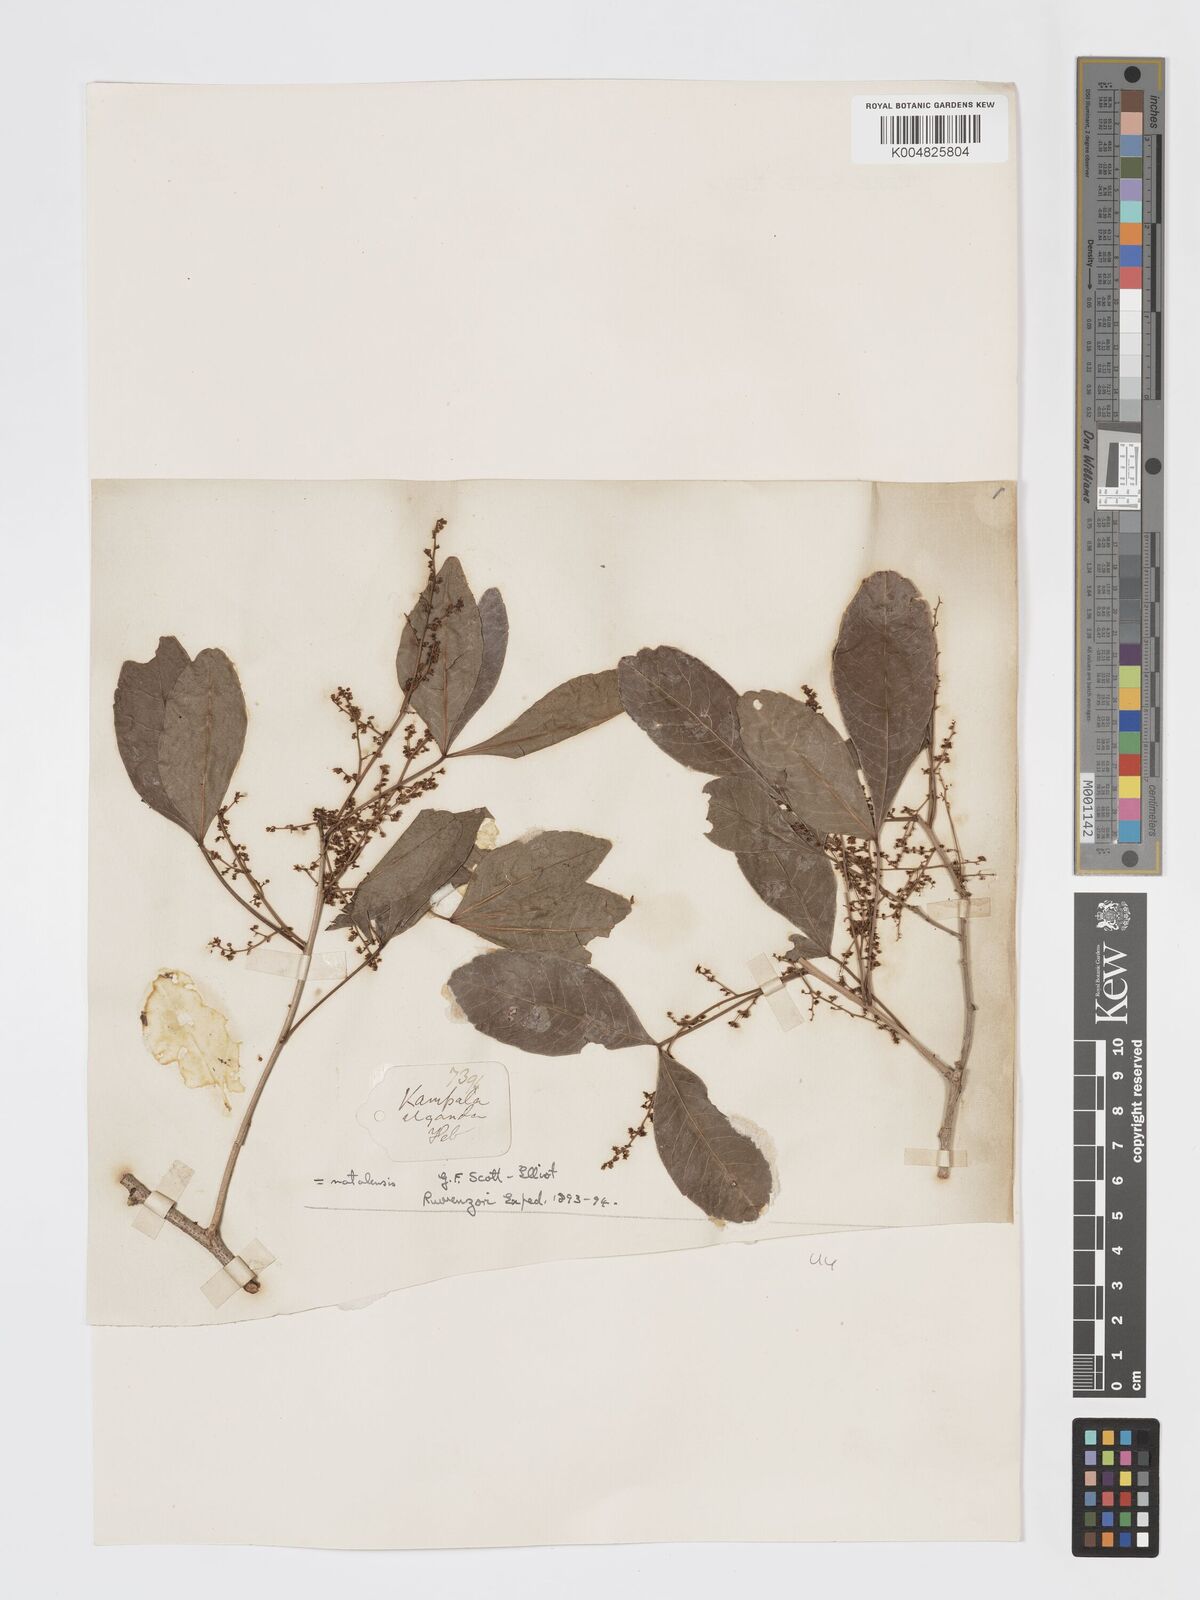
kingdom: Plantae
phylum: Tracheophyta
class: Magnoliopsida
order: Sapindales
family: Anacardiaceae
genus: Searsia
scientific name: Searsia natalensis
